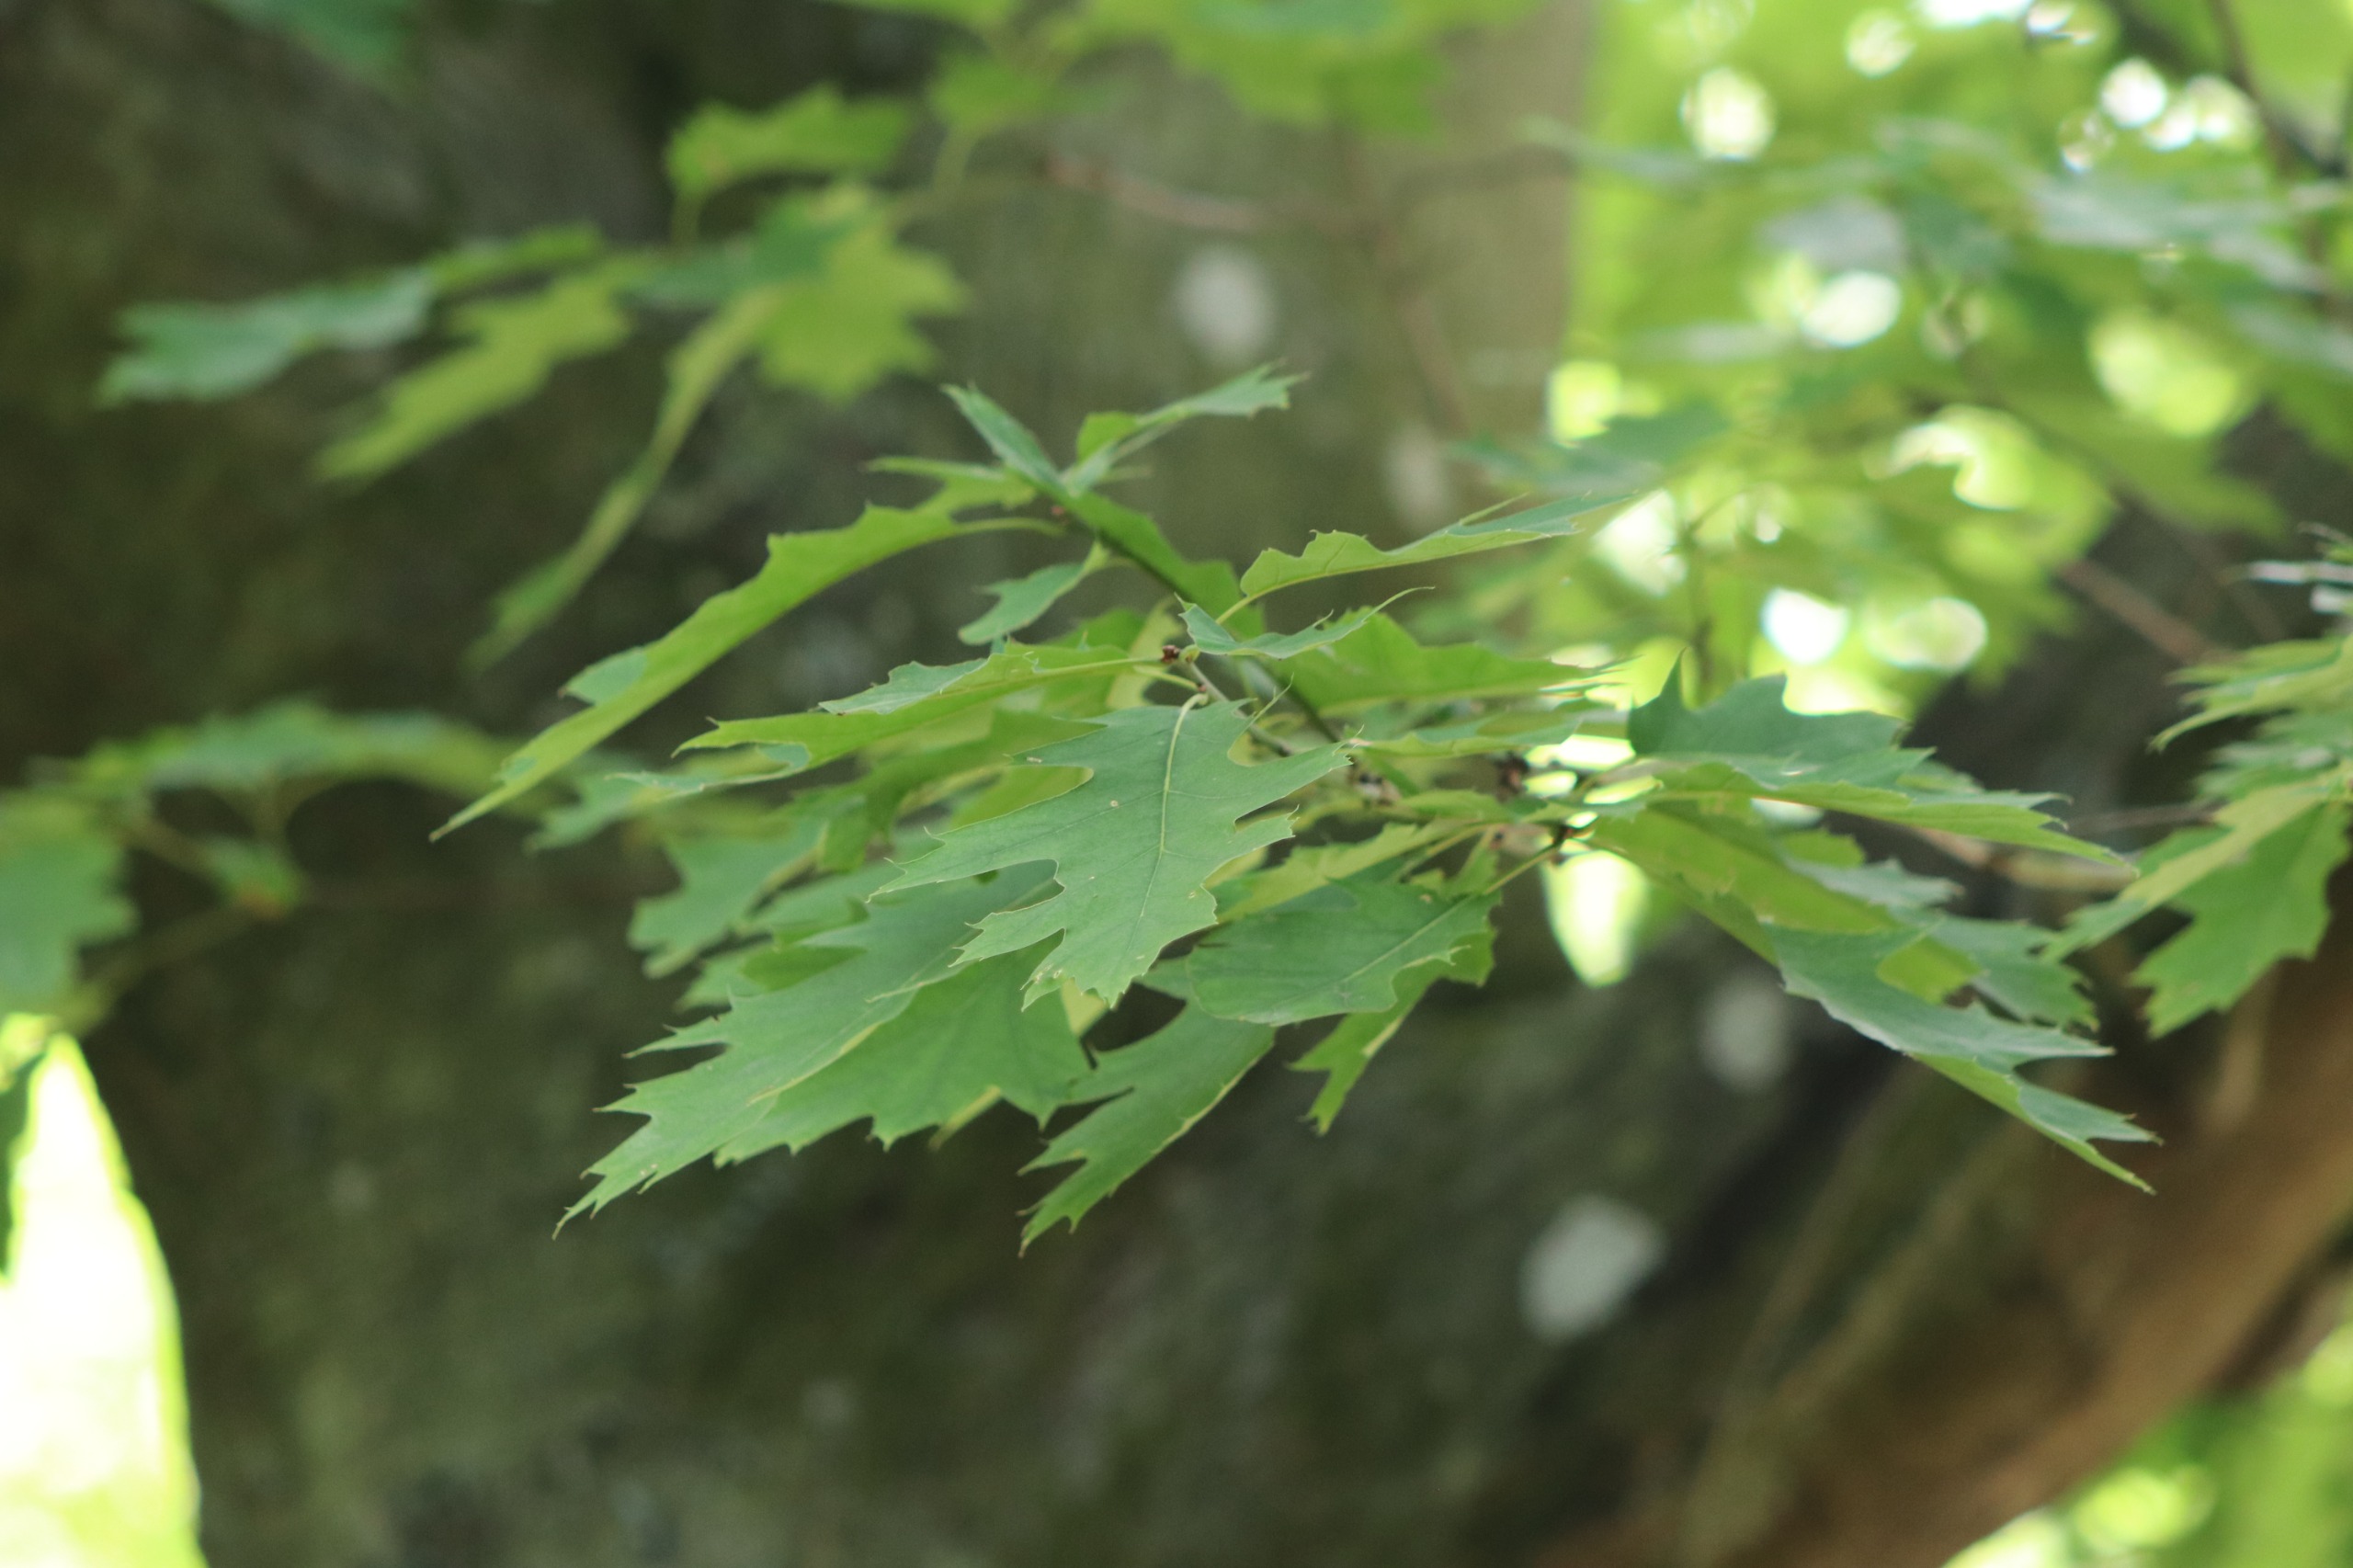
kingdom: Plantae
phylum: Tracheophyta
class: Magnoliopsida
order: Fagales
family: Fagaceae
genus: Quercus
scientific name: Quercus rubra
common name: Rød-eg
